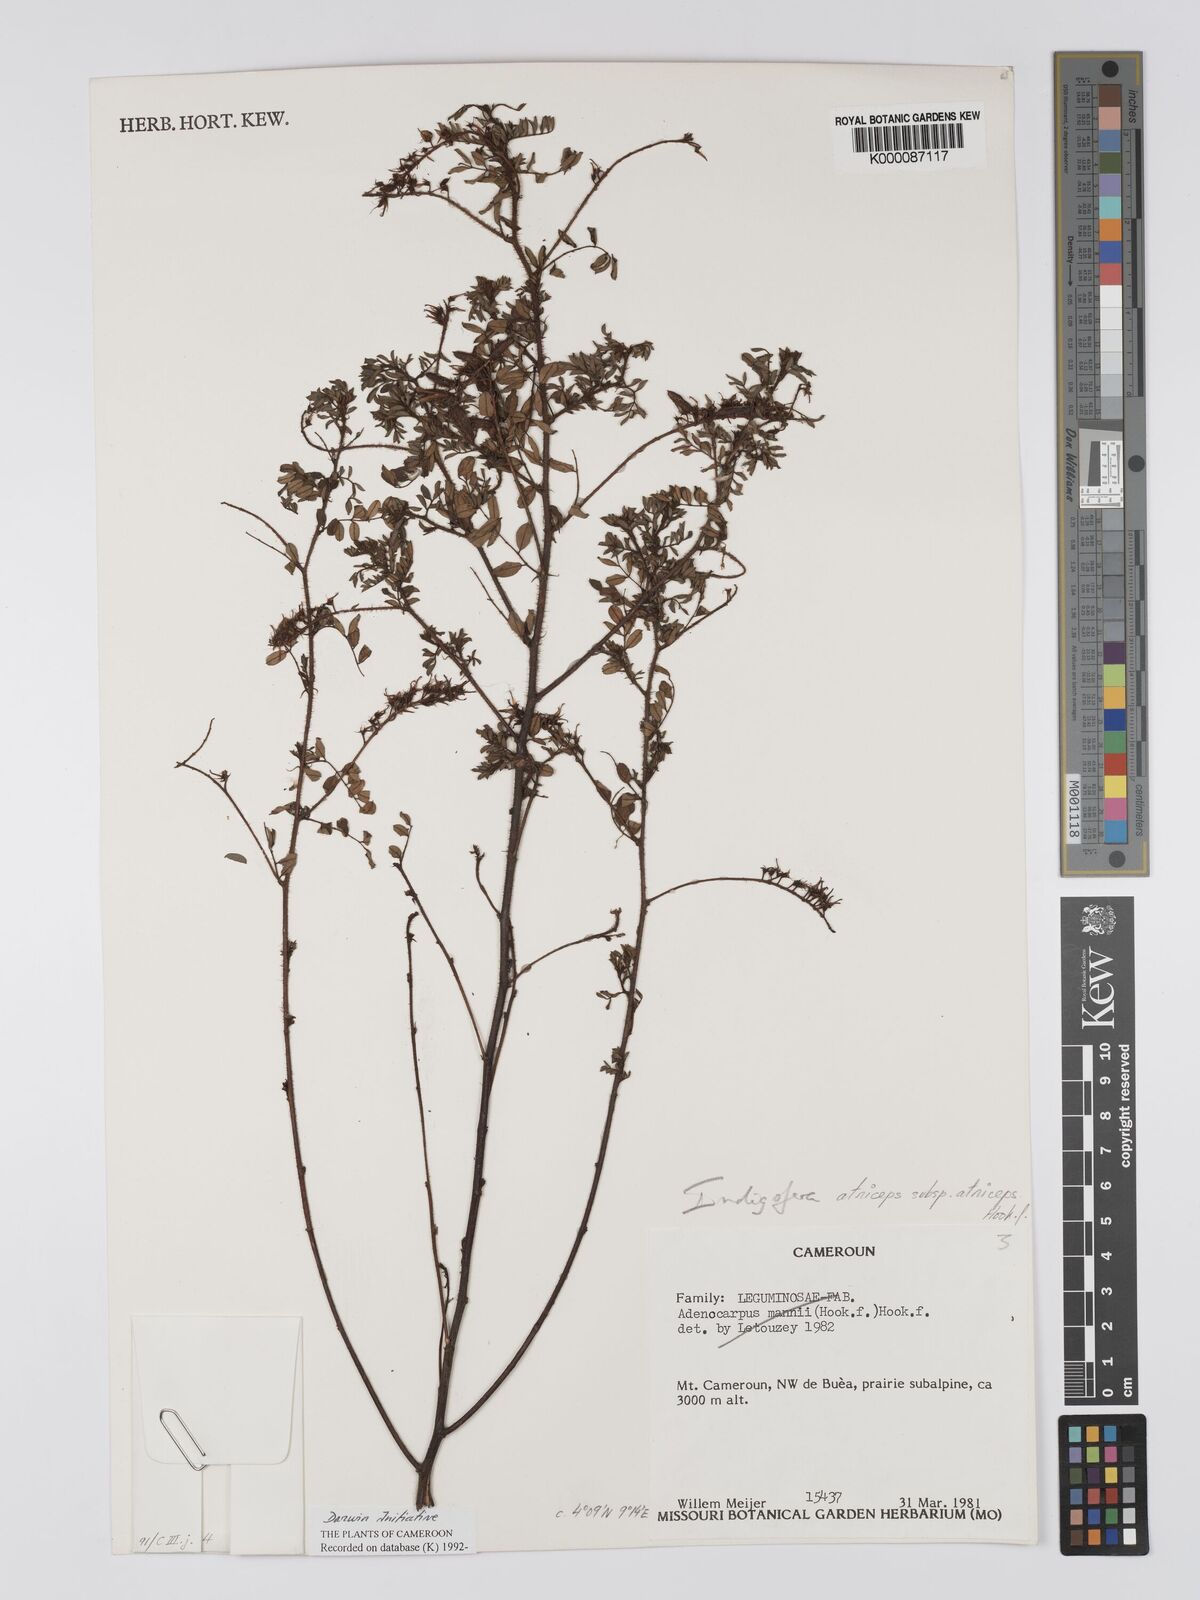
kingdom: Plantae
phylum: Tracheophyta
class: Magnoliopsida
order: Fabales
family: Fabaceae
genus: Indigofera
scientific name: Indigofera atriceps
